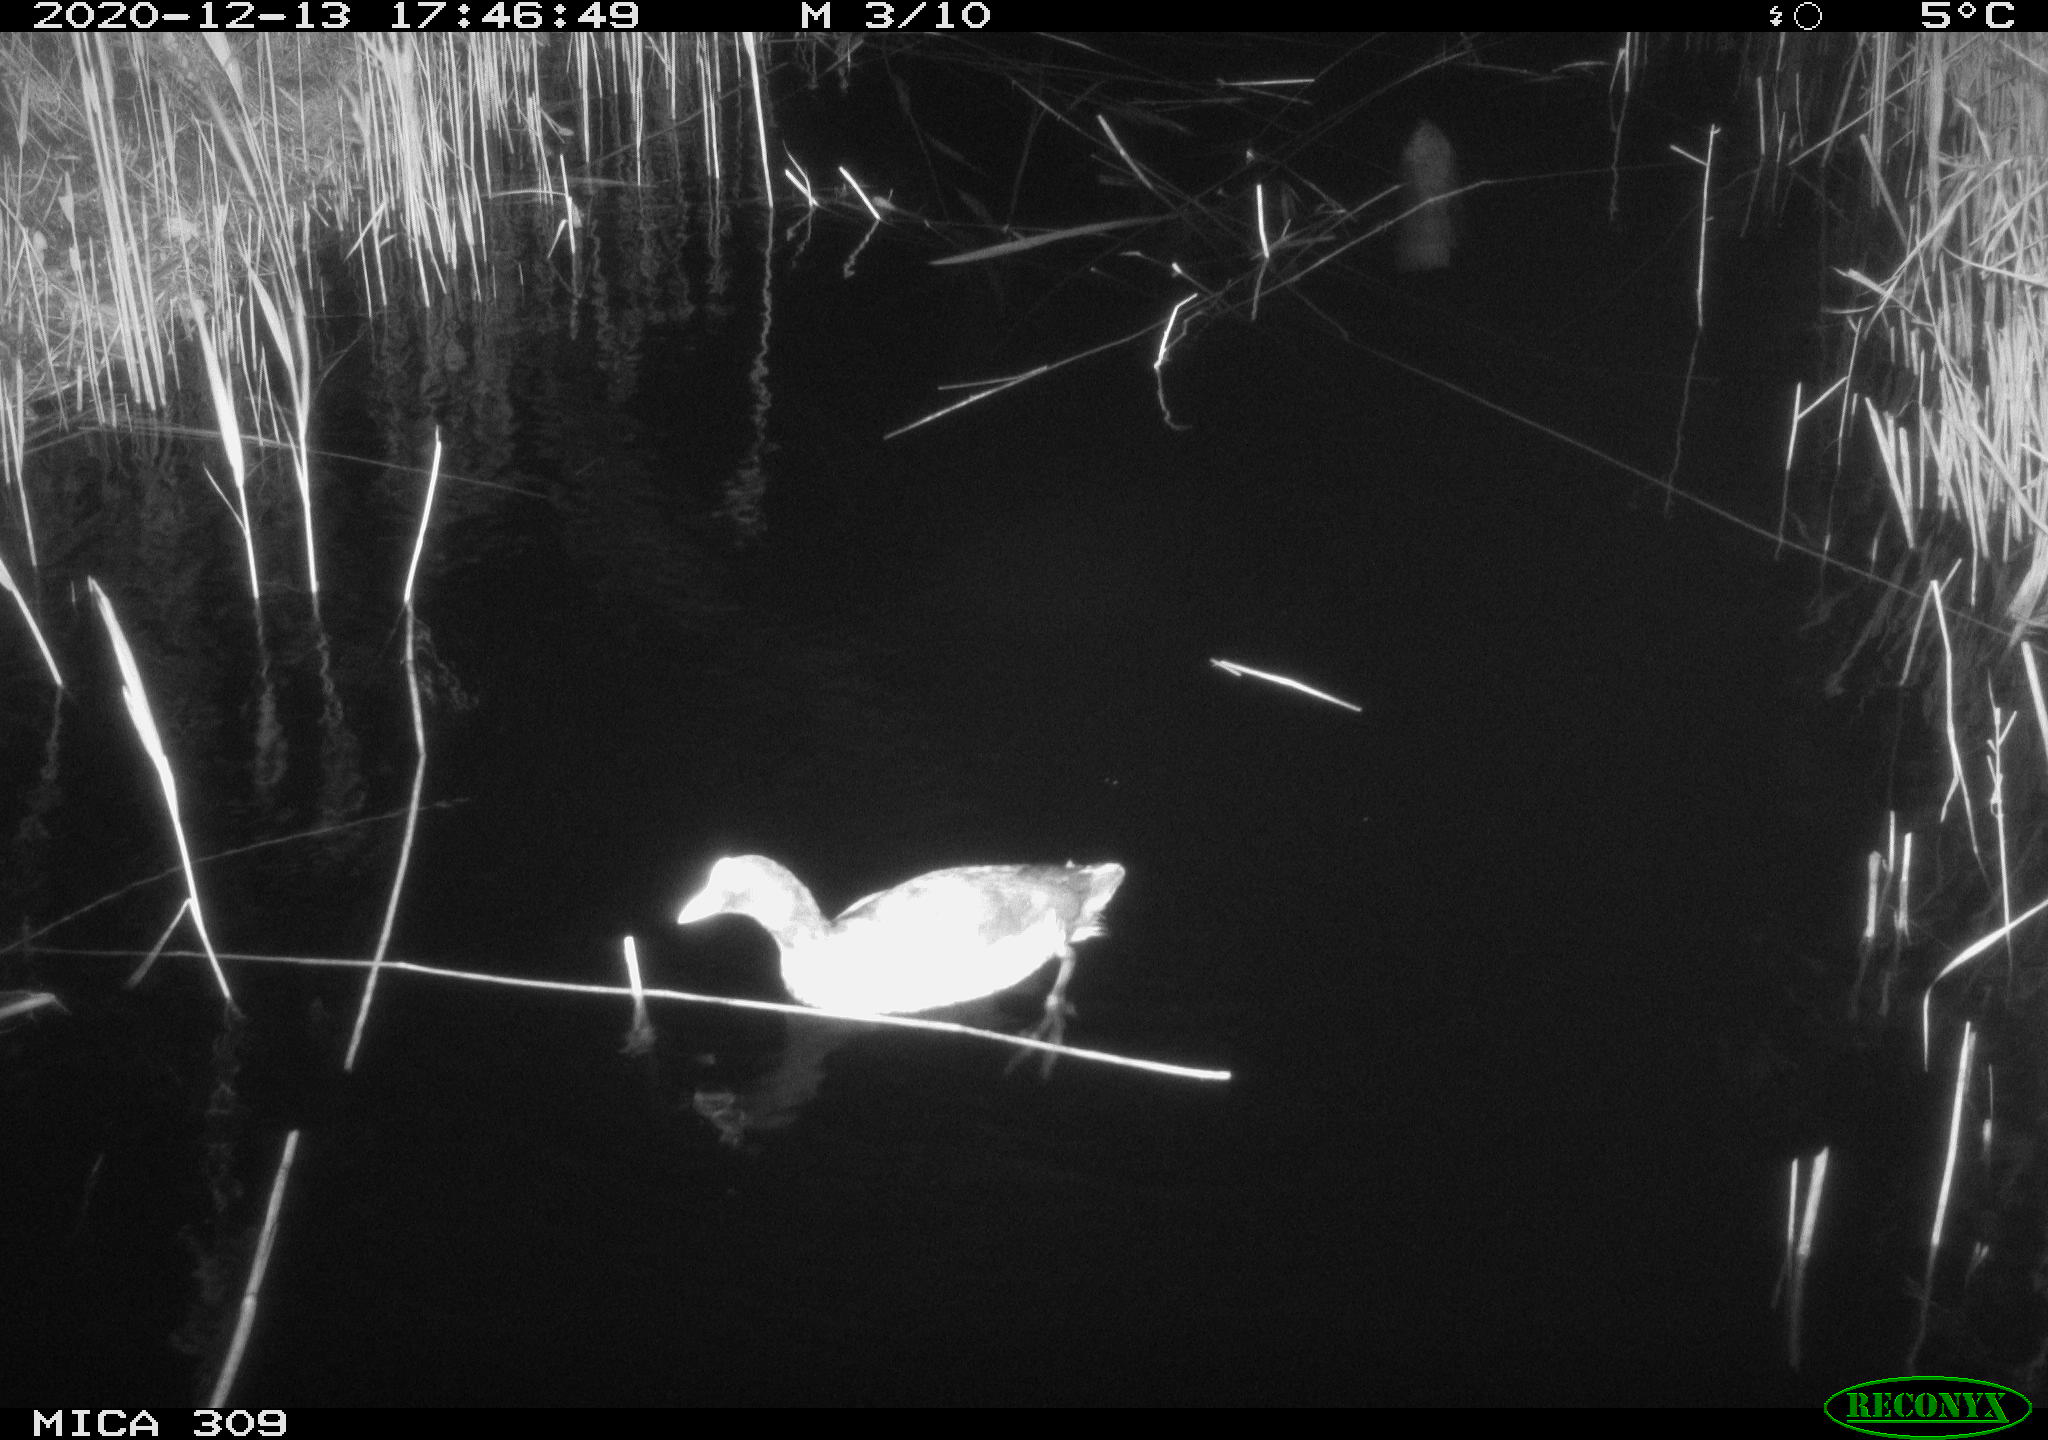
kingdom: Animalia
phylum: Chordata
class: Aves
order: Gruiformes
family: Rallidae
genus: Fulica
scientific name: Fulica atra
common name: Eurasian coot
